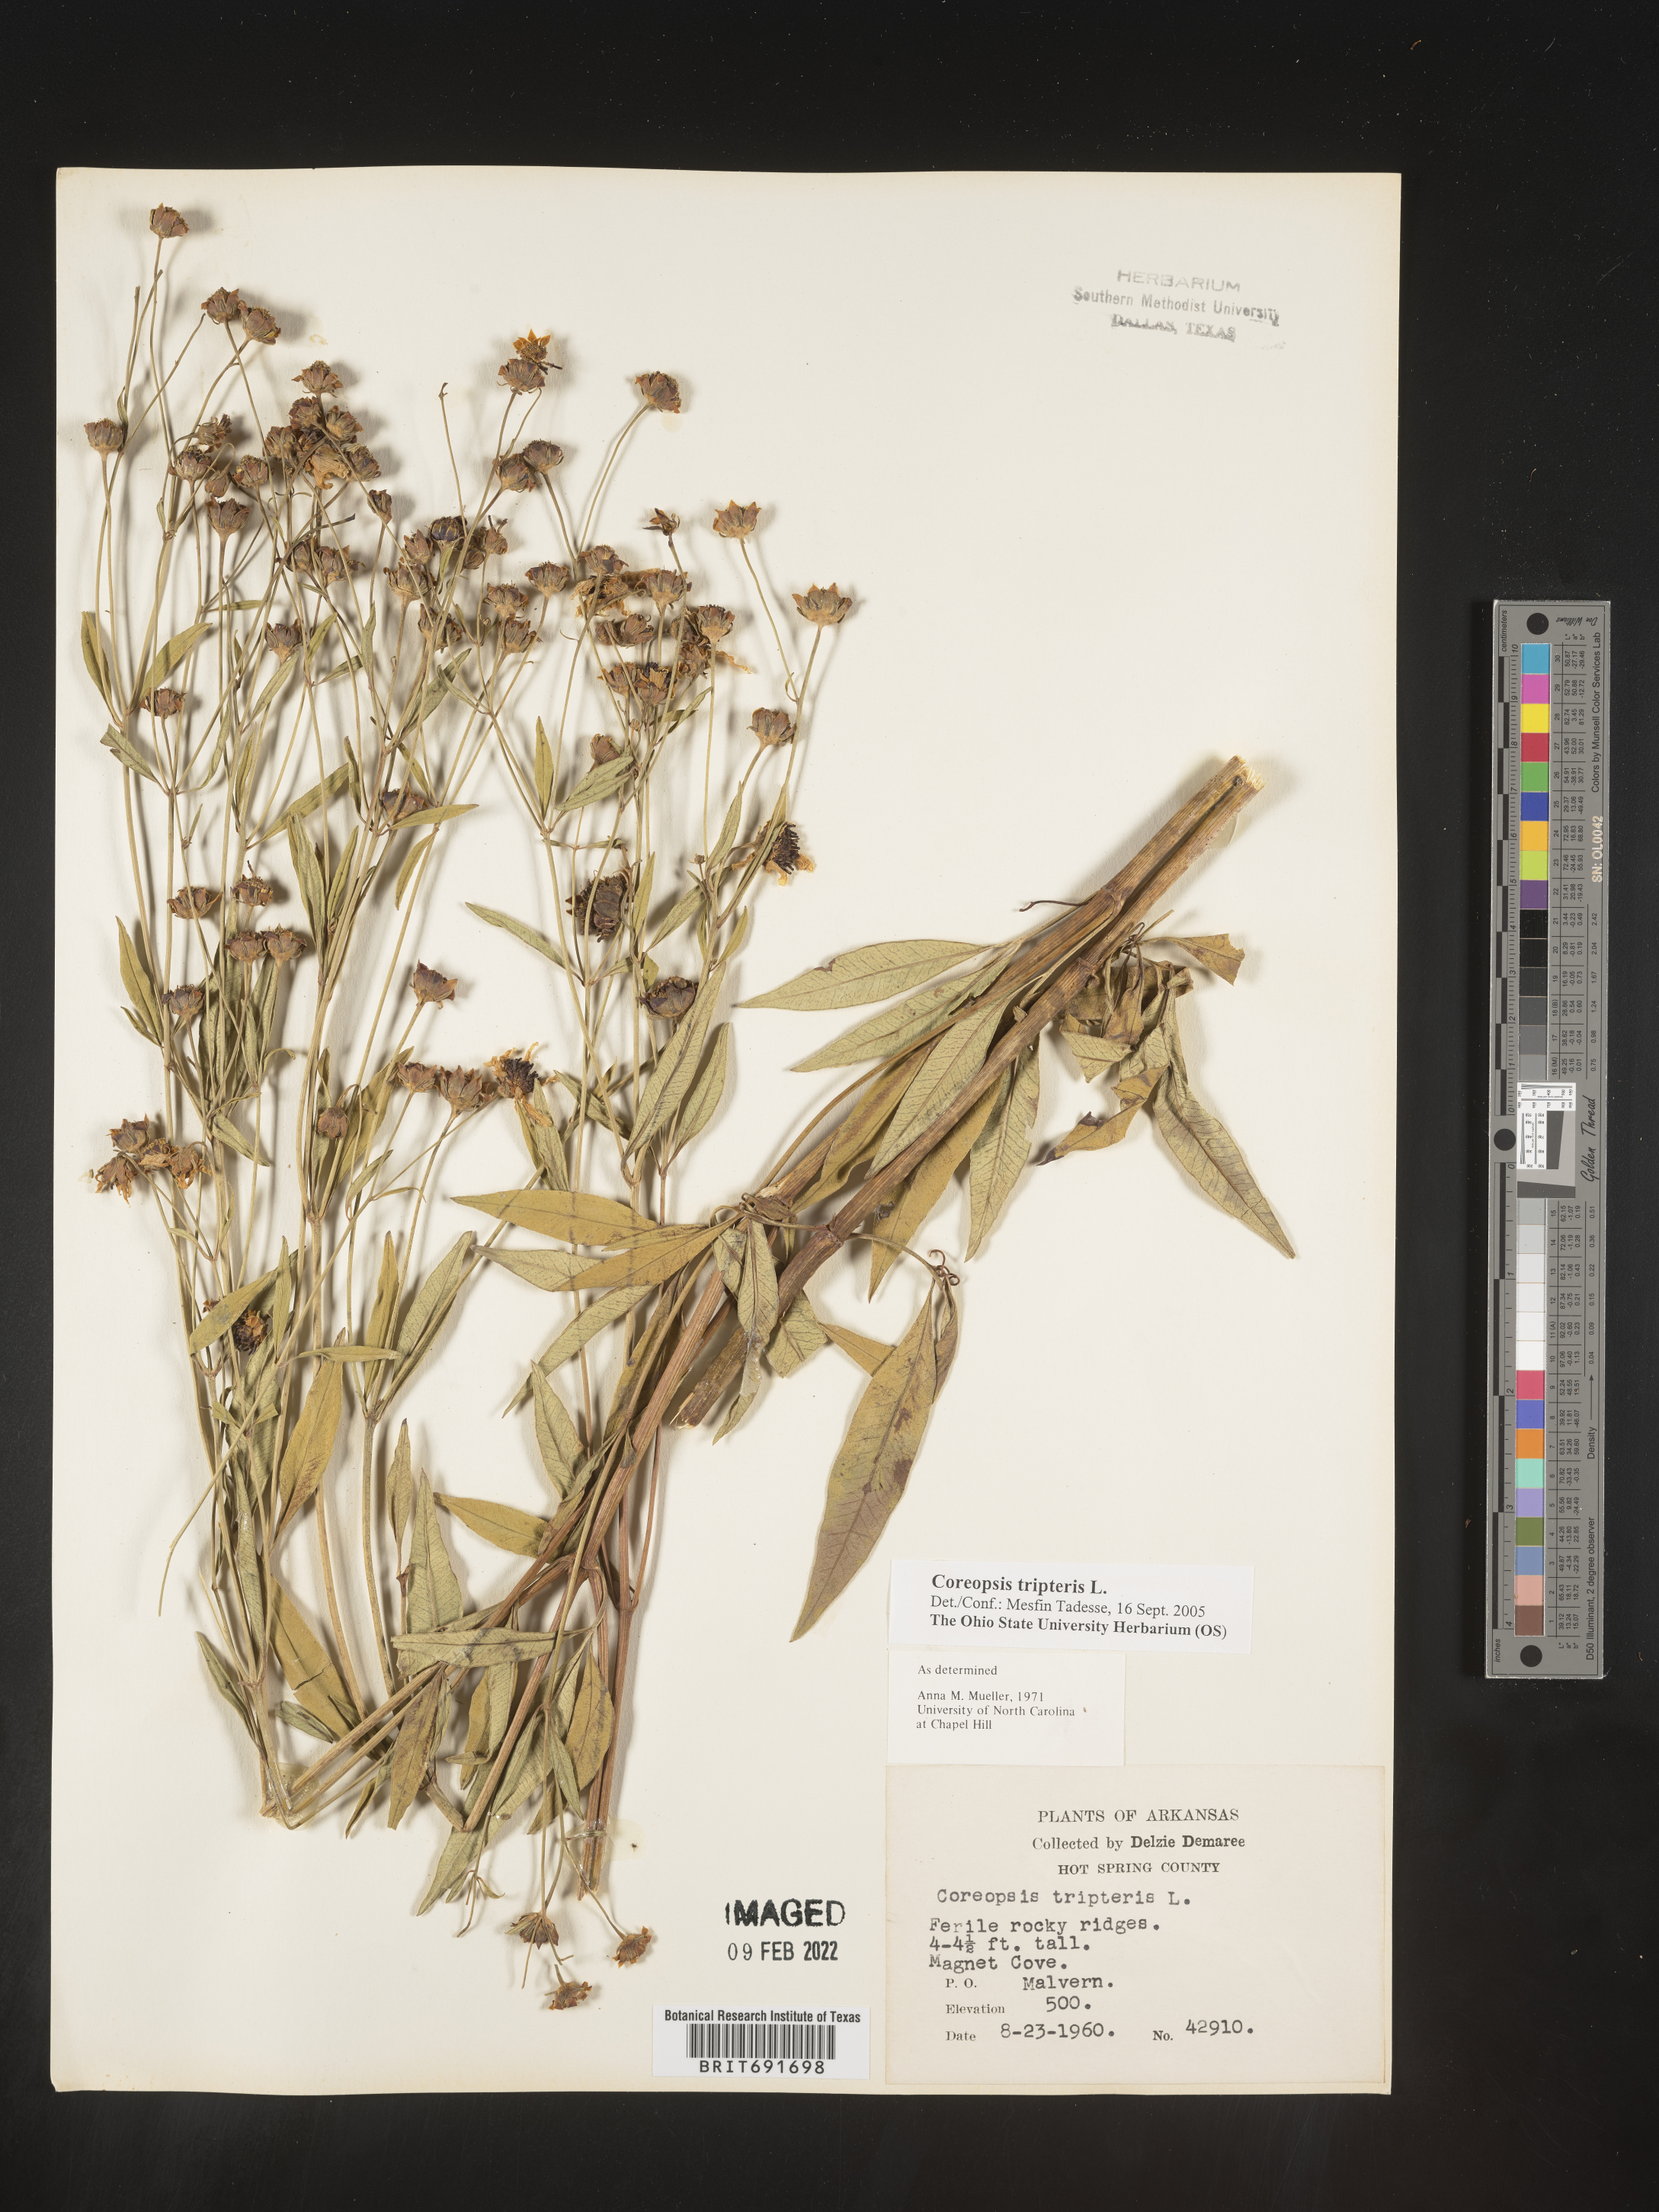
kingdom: Plantae
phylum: Tracheophyta
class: Magnoliopsida
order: Asterales
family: Asteraceae
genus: Coreopsis
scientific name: Coreopsis tripteris
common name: Tall coreopsis
